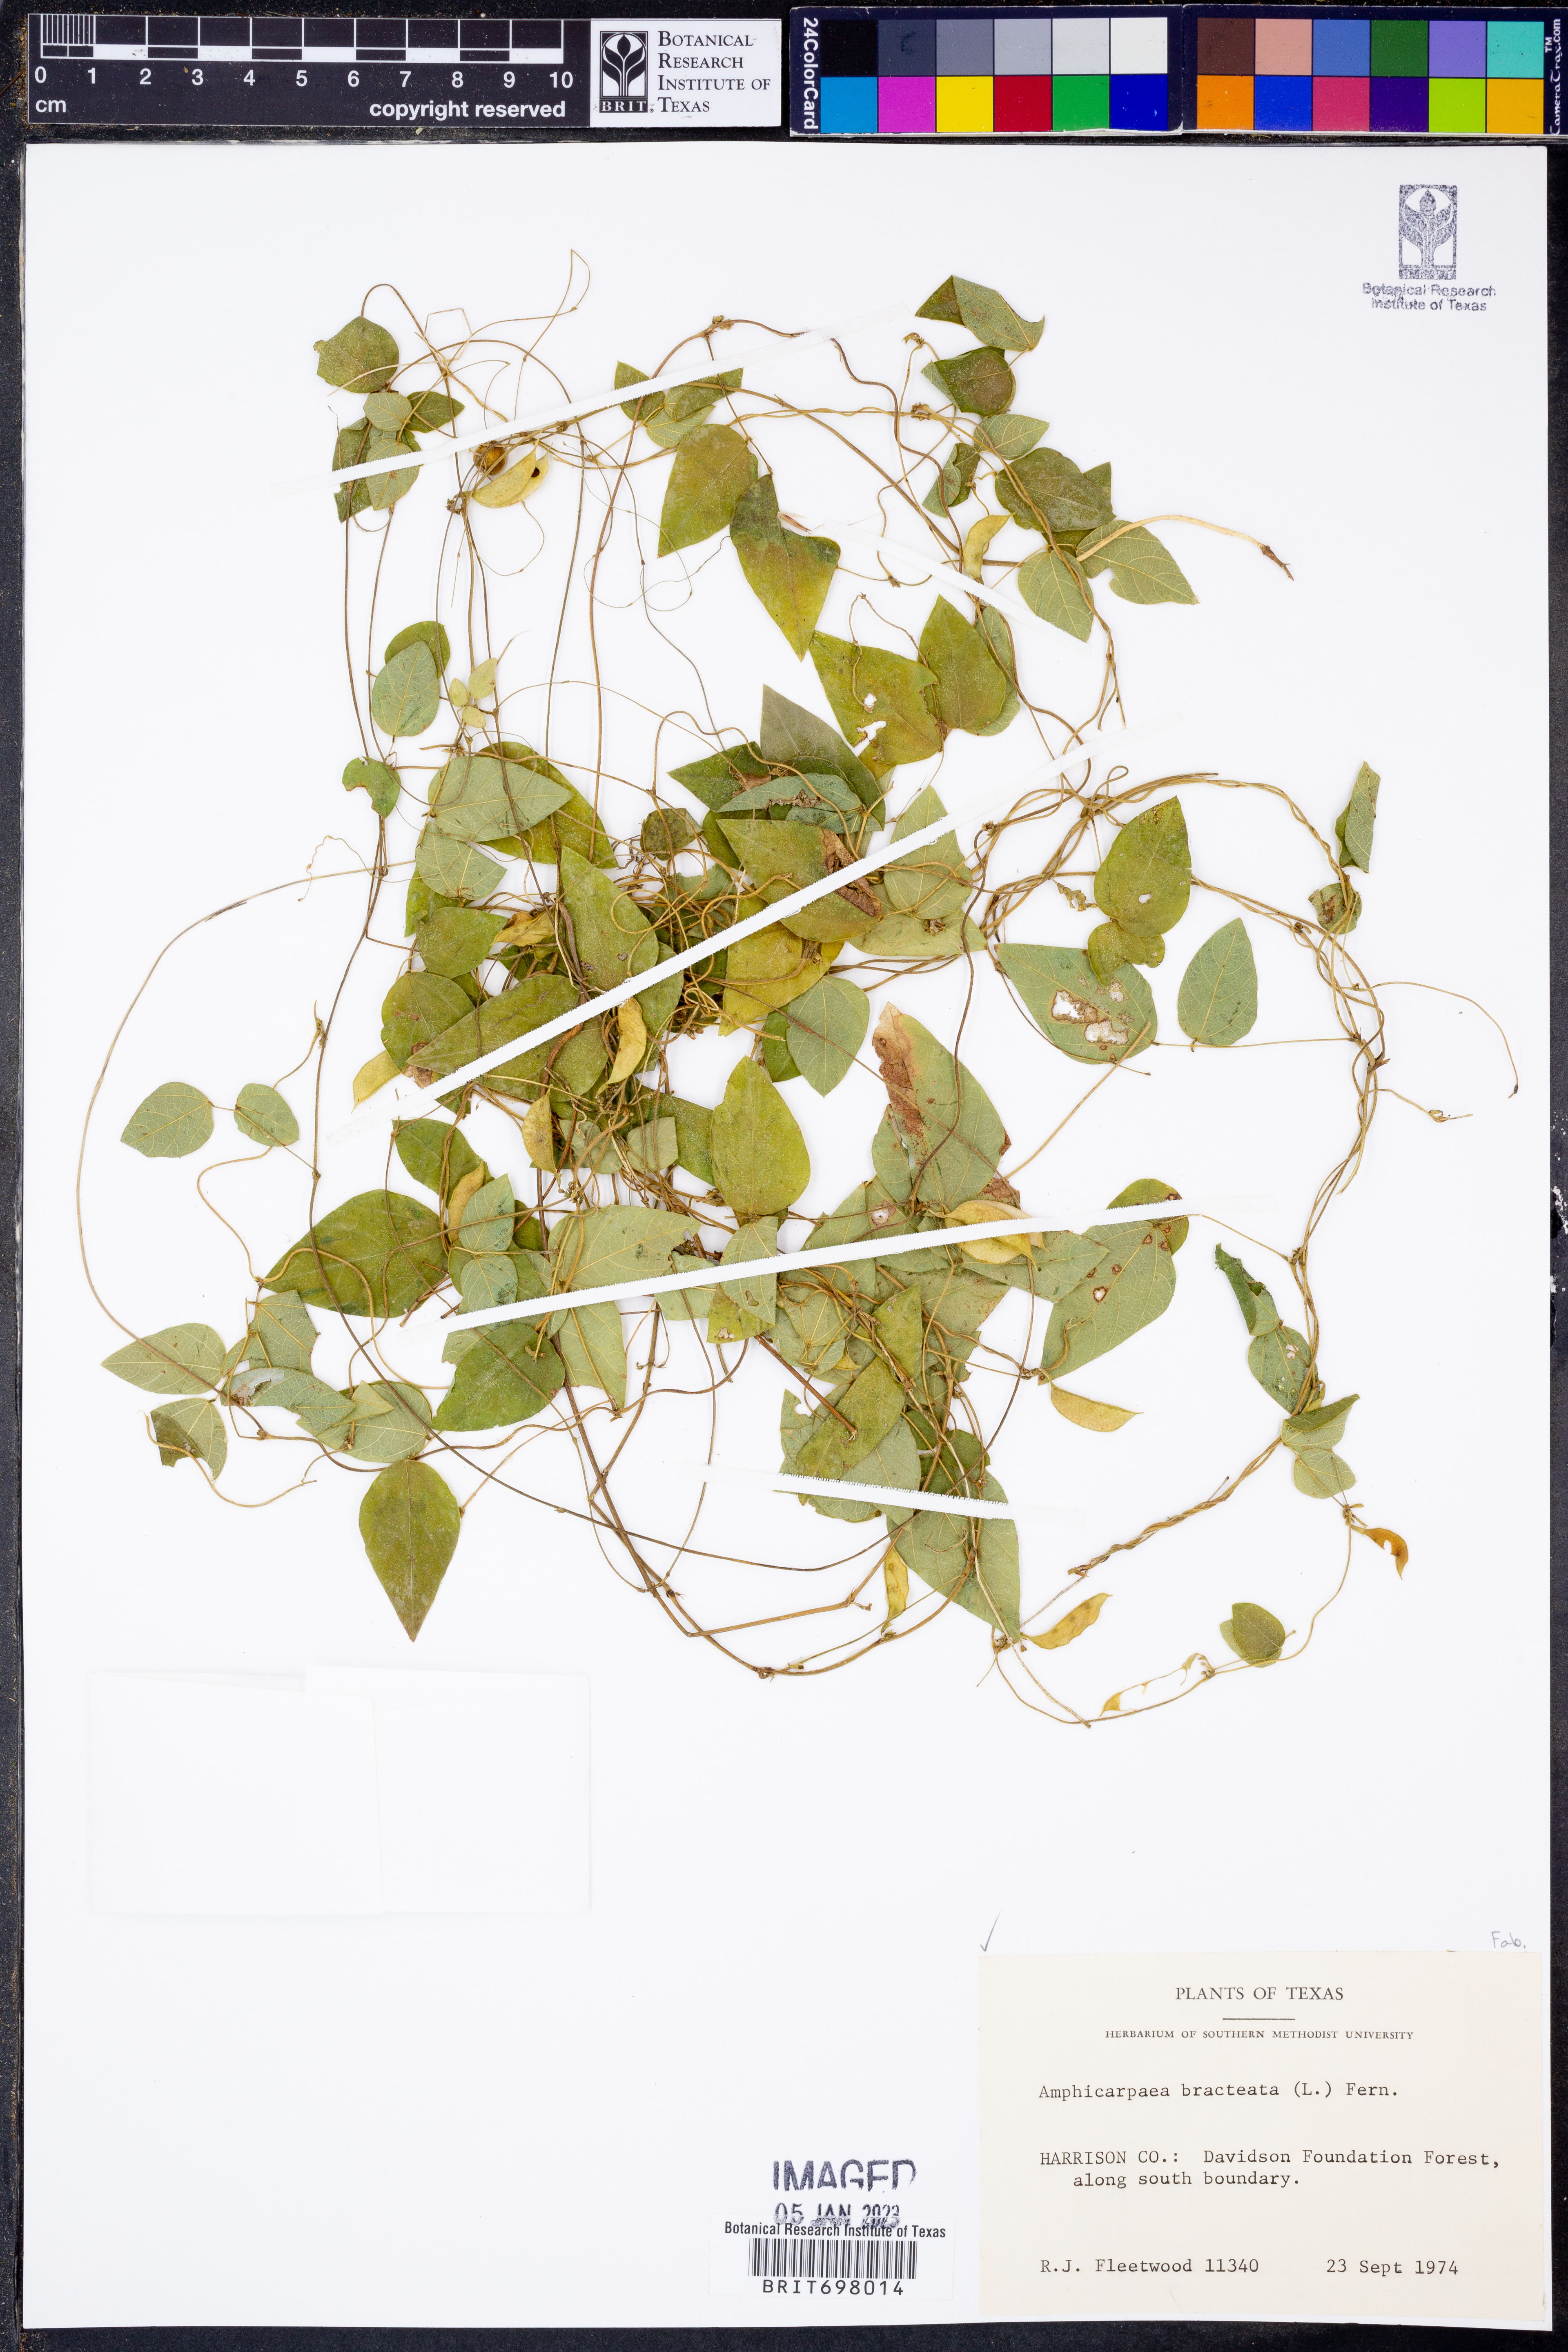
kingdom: Plantae
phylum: Tracheophyta
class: Magnoliopsida
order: Fabales
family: Fabaceae
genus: Amphicarpaea
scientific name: Amphicarpaea bracteata
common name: American hog peanut
